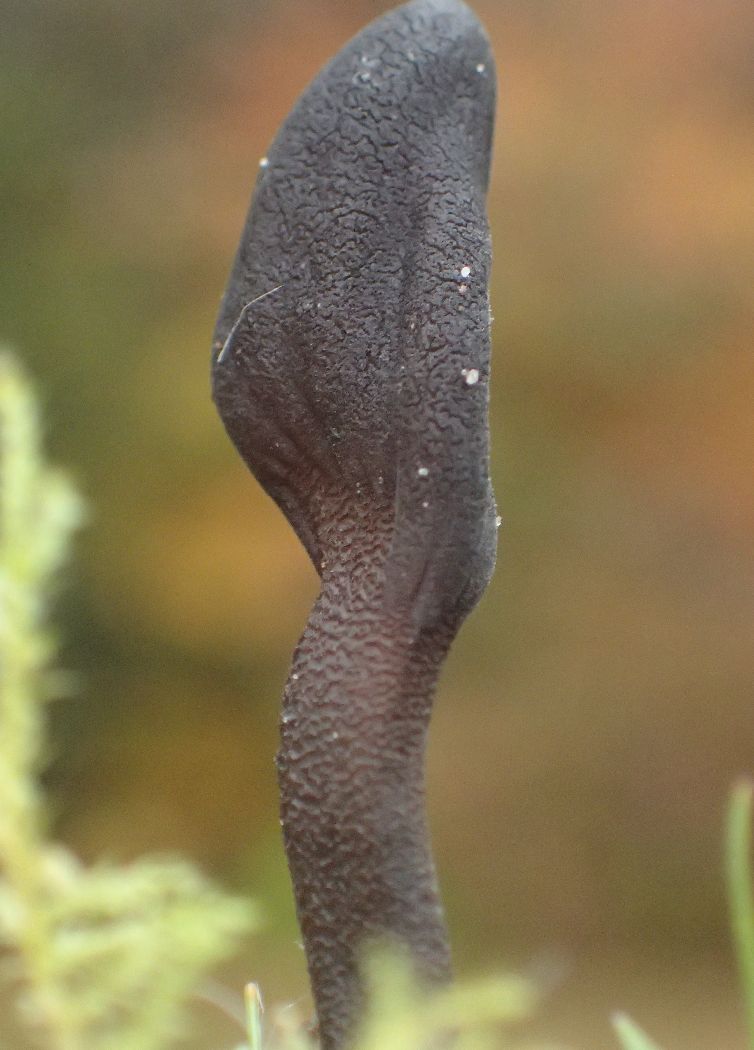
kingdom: Fungi
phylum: Ascomycota
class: Geoglossomycetes
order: Geoglossales
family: Geoglossaceae
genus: Geoglossum
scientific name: Geoglossum fallax
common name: småskællet jordtunge
